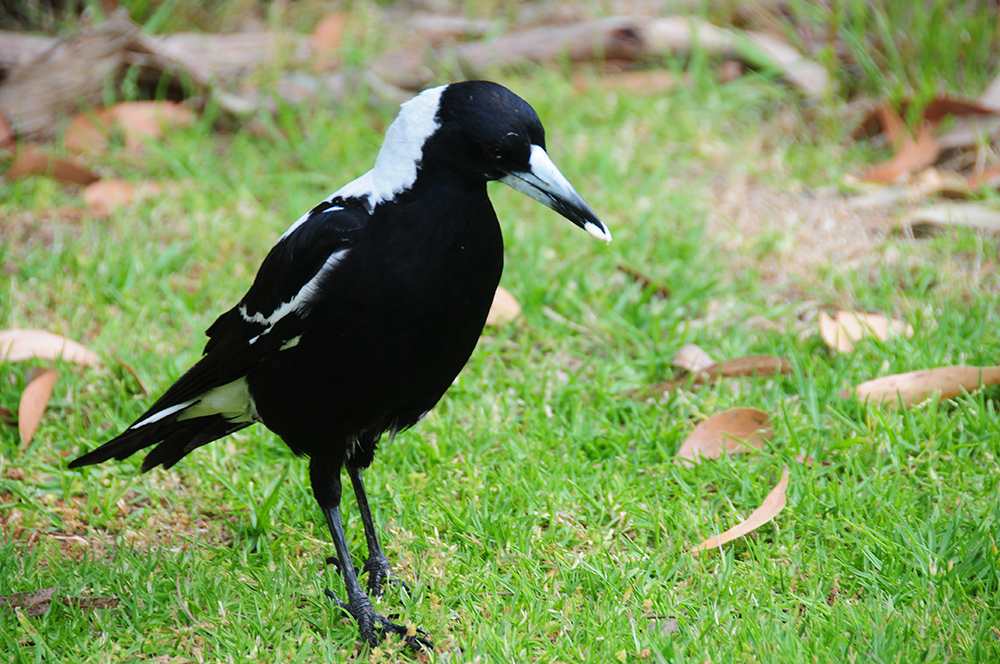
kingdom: Animalia
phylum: Chordata
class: Aves
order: Passeriformes
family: Cracticidae
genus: Gymnorhina
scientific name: Gymnorhina tibicen
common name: Australian magpie
